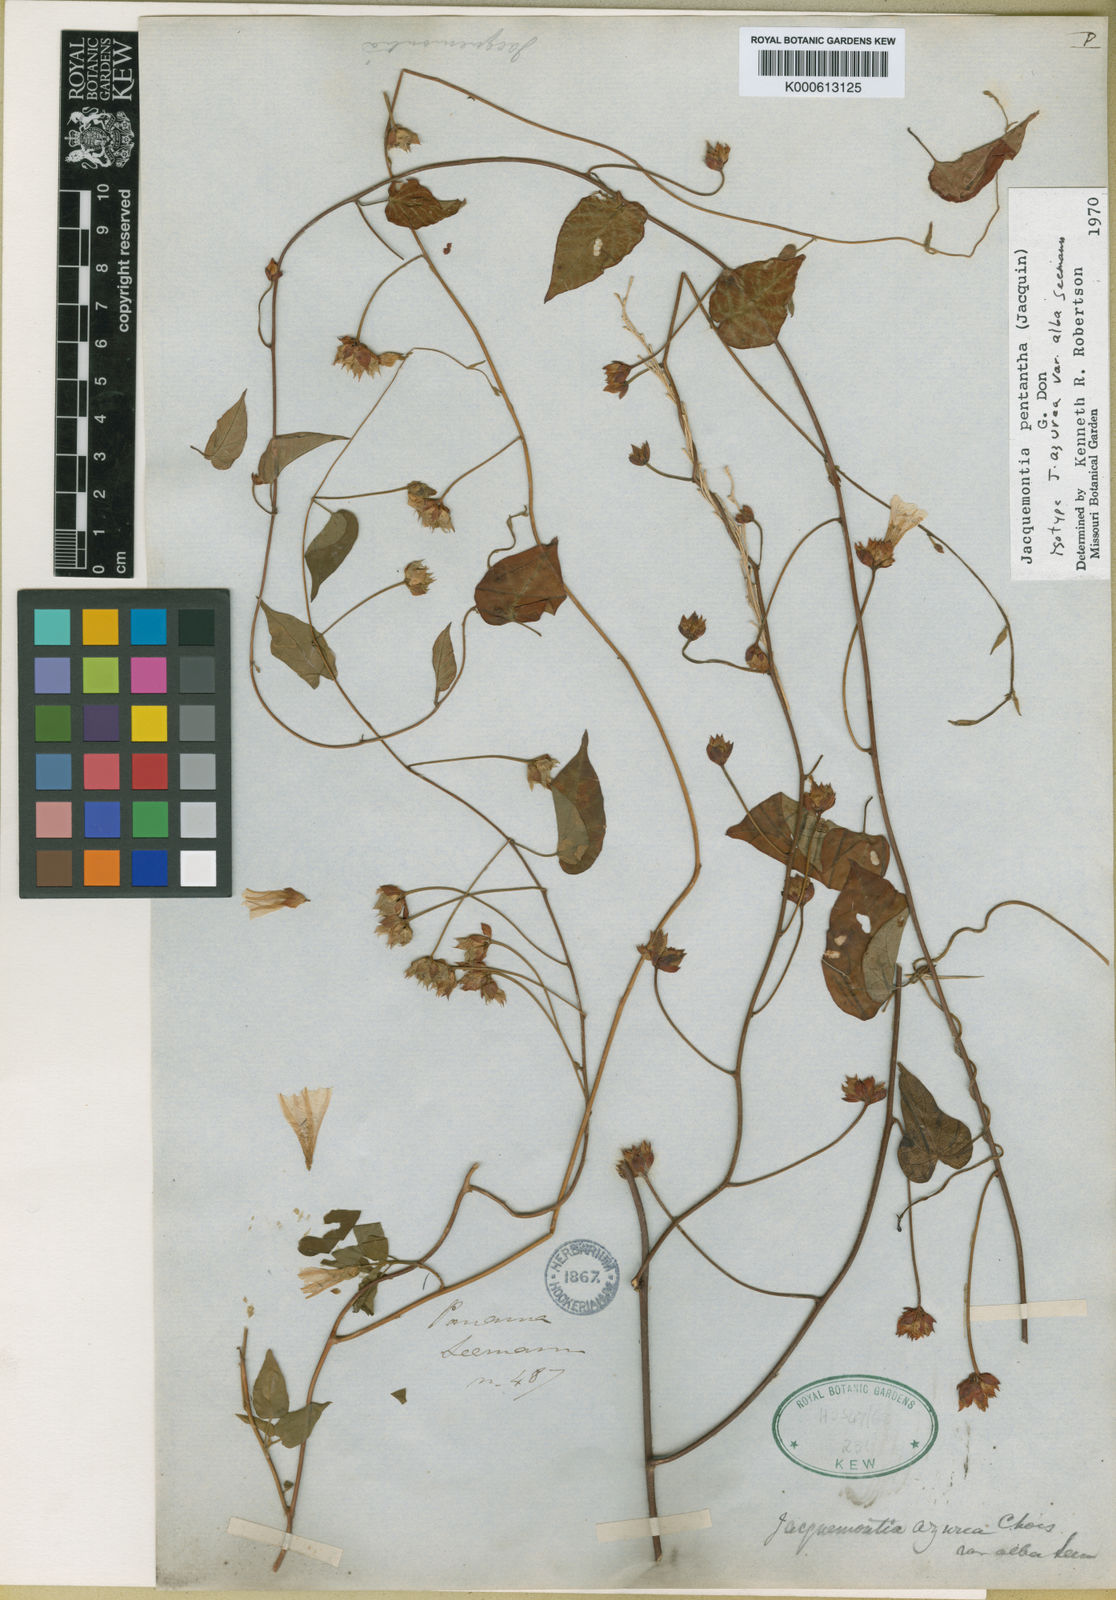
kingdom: Plantae
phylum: Tracheophyta
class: Magnoliopsida
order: Solanales
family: Convolvulaceae
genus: Jacquemontia
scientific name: Jacquemontia pentanthos
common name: Skyblue clustervine
